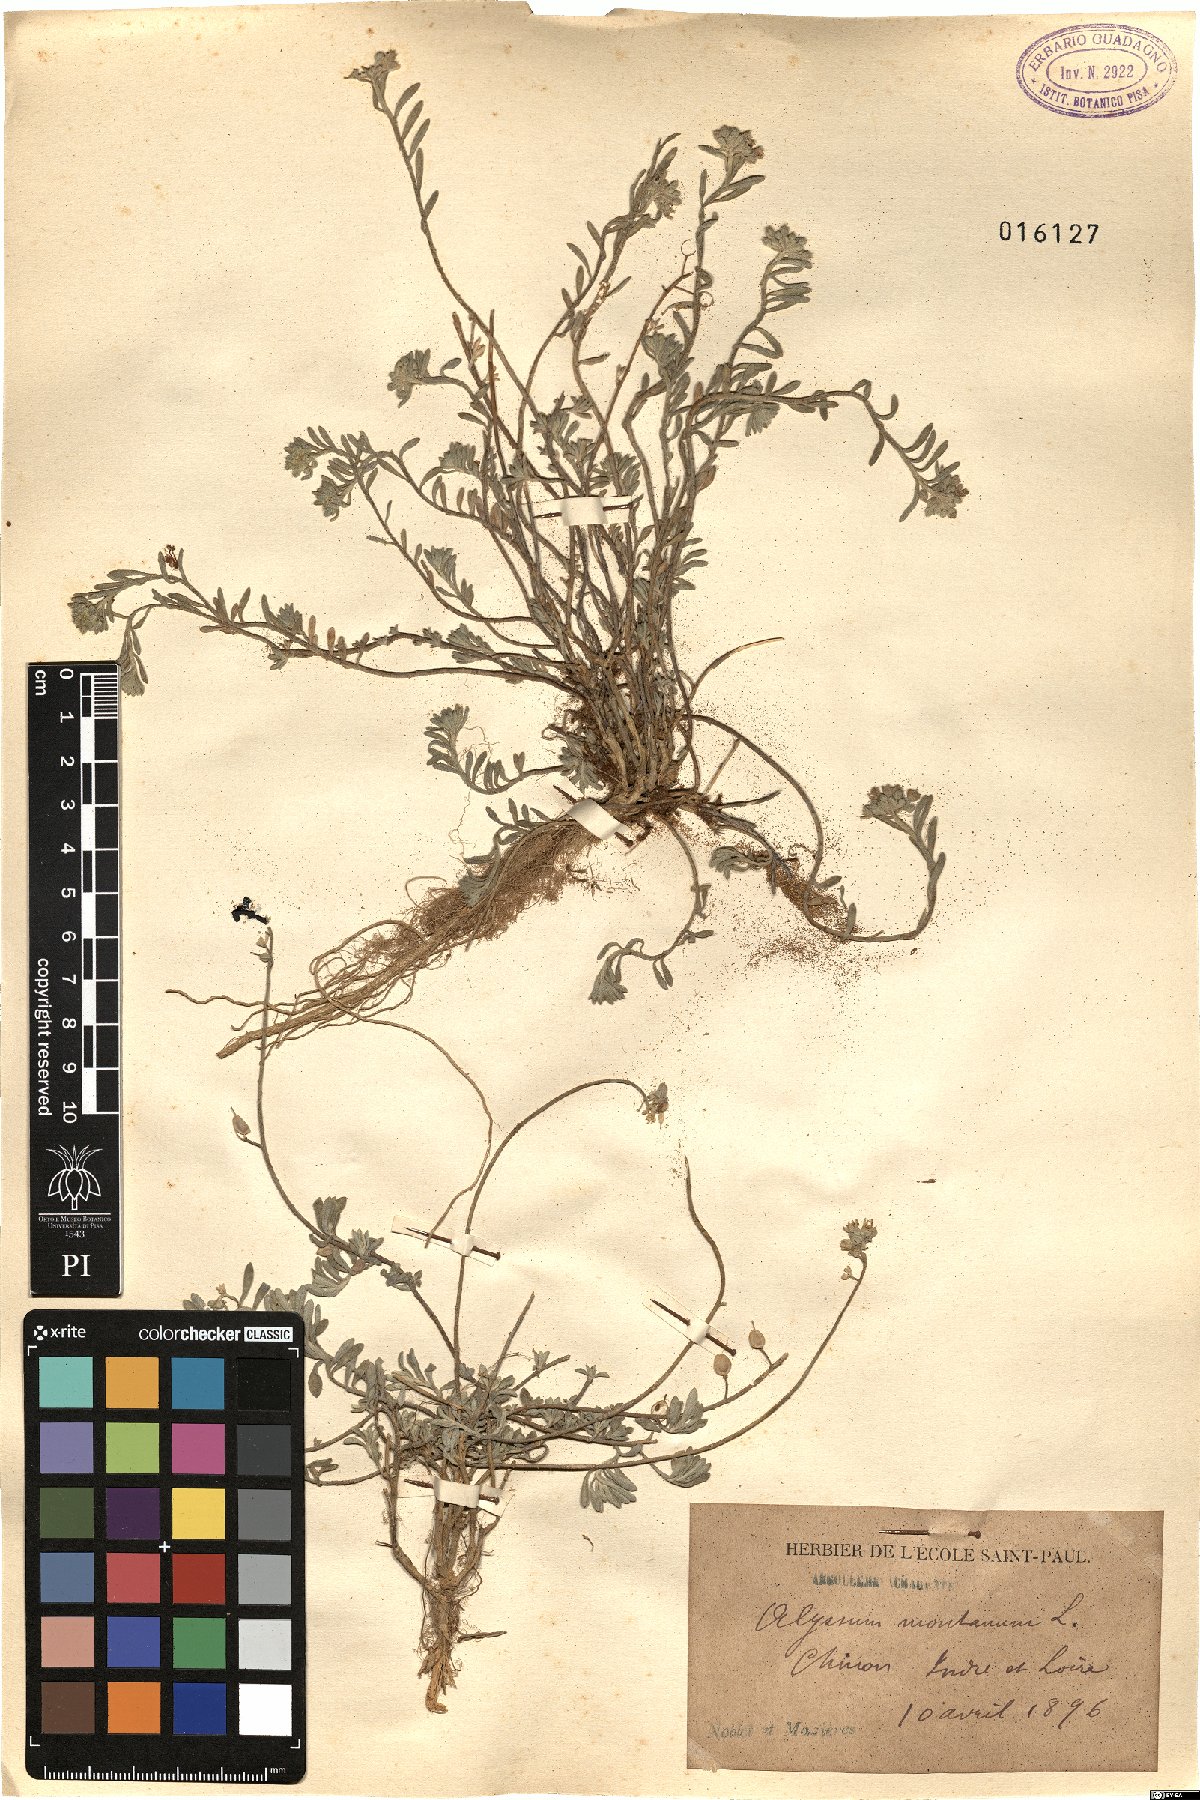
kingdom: Plantae
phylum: Tracheophyta
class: Magnoliopsida
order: Brassicales
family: Brassicaceae
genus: Alyssum
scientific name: Alyssum montanum
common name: Mountain alison
